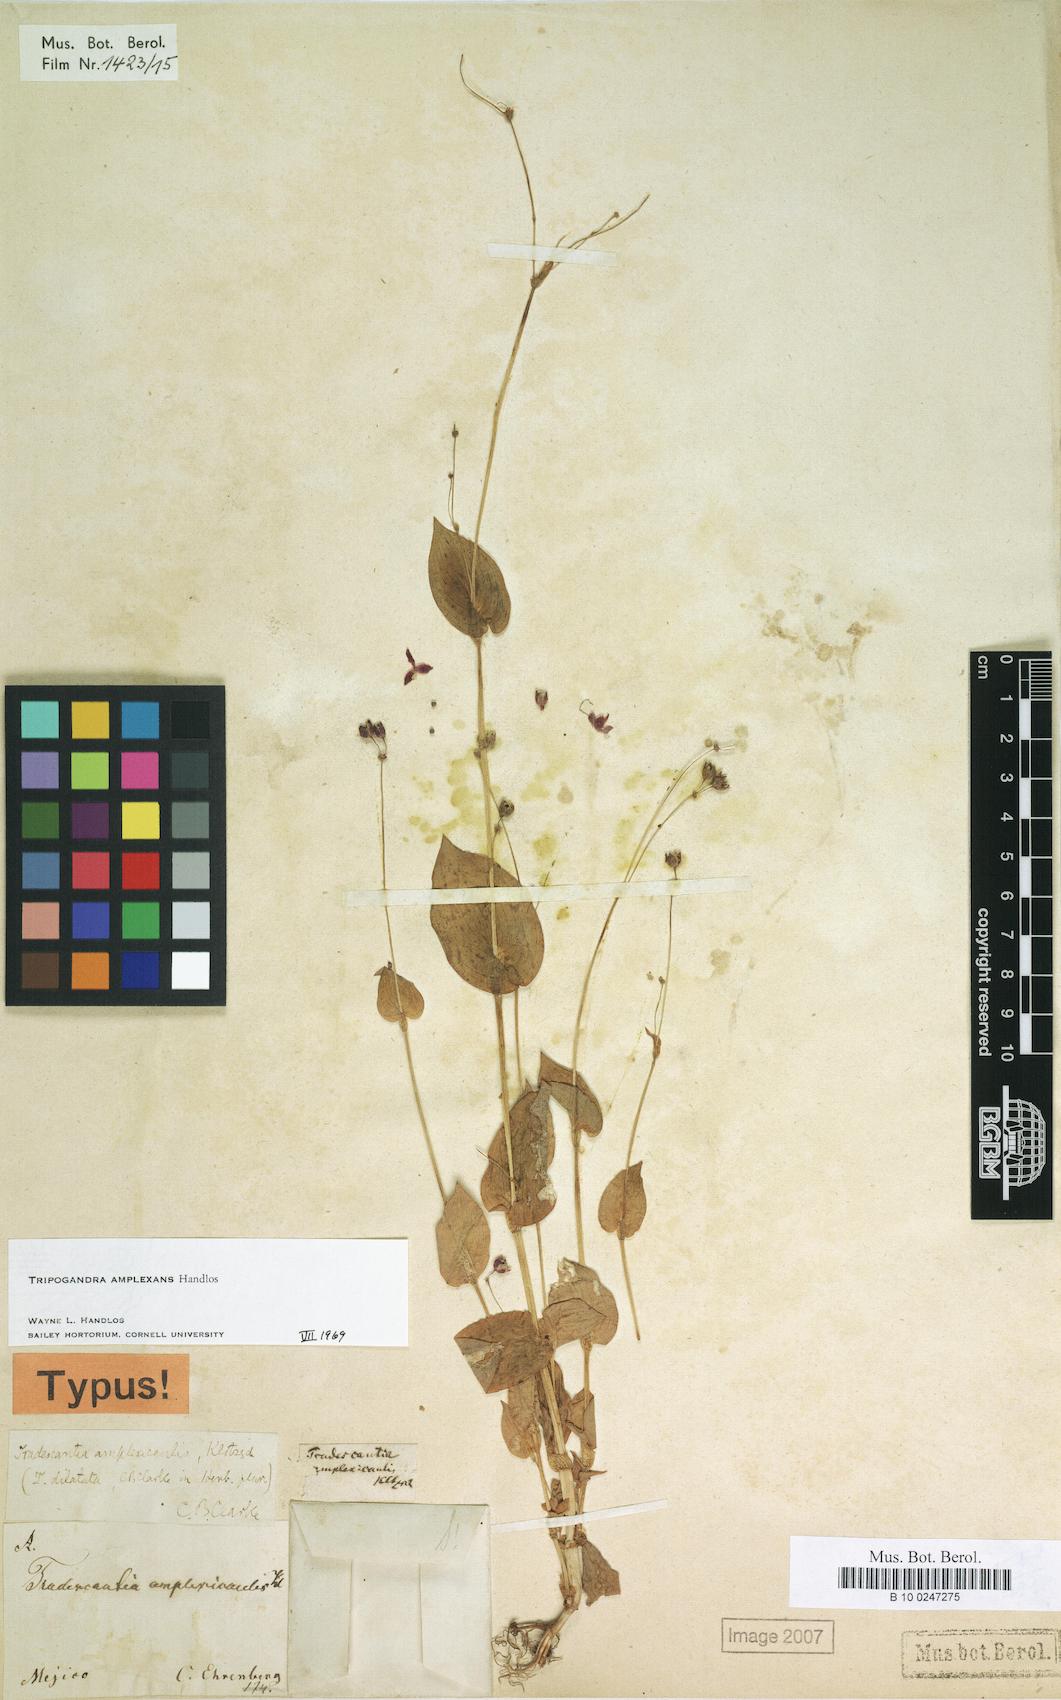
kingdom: Plantae
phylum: Tracheophyta
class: Liliopsida
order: Commelinales
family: Commelinaceae
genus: Callisia
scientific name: Callisia amplexans
